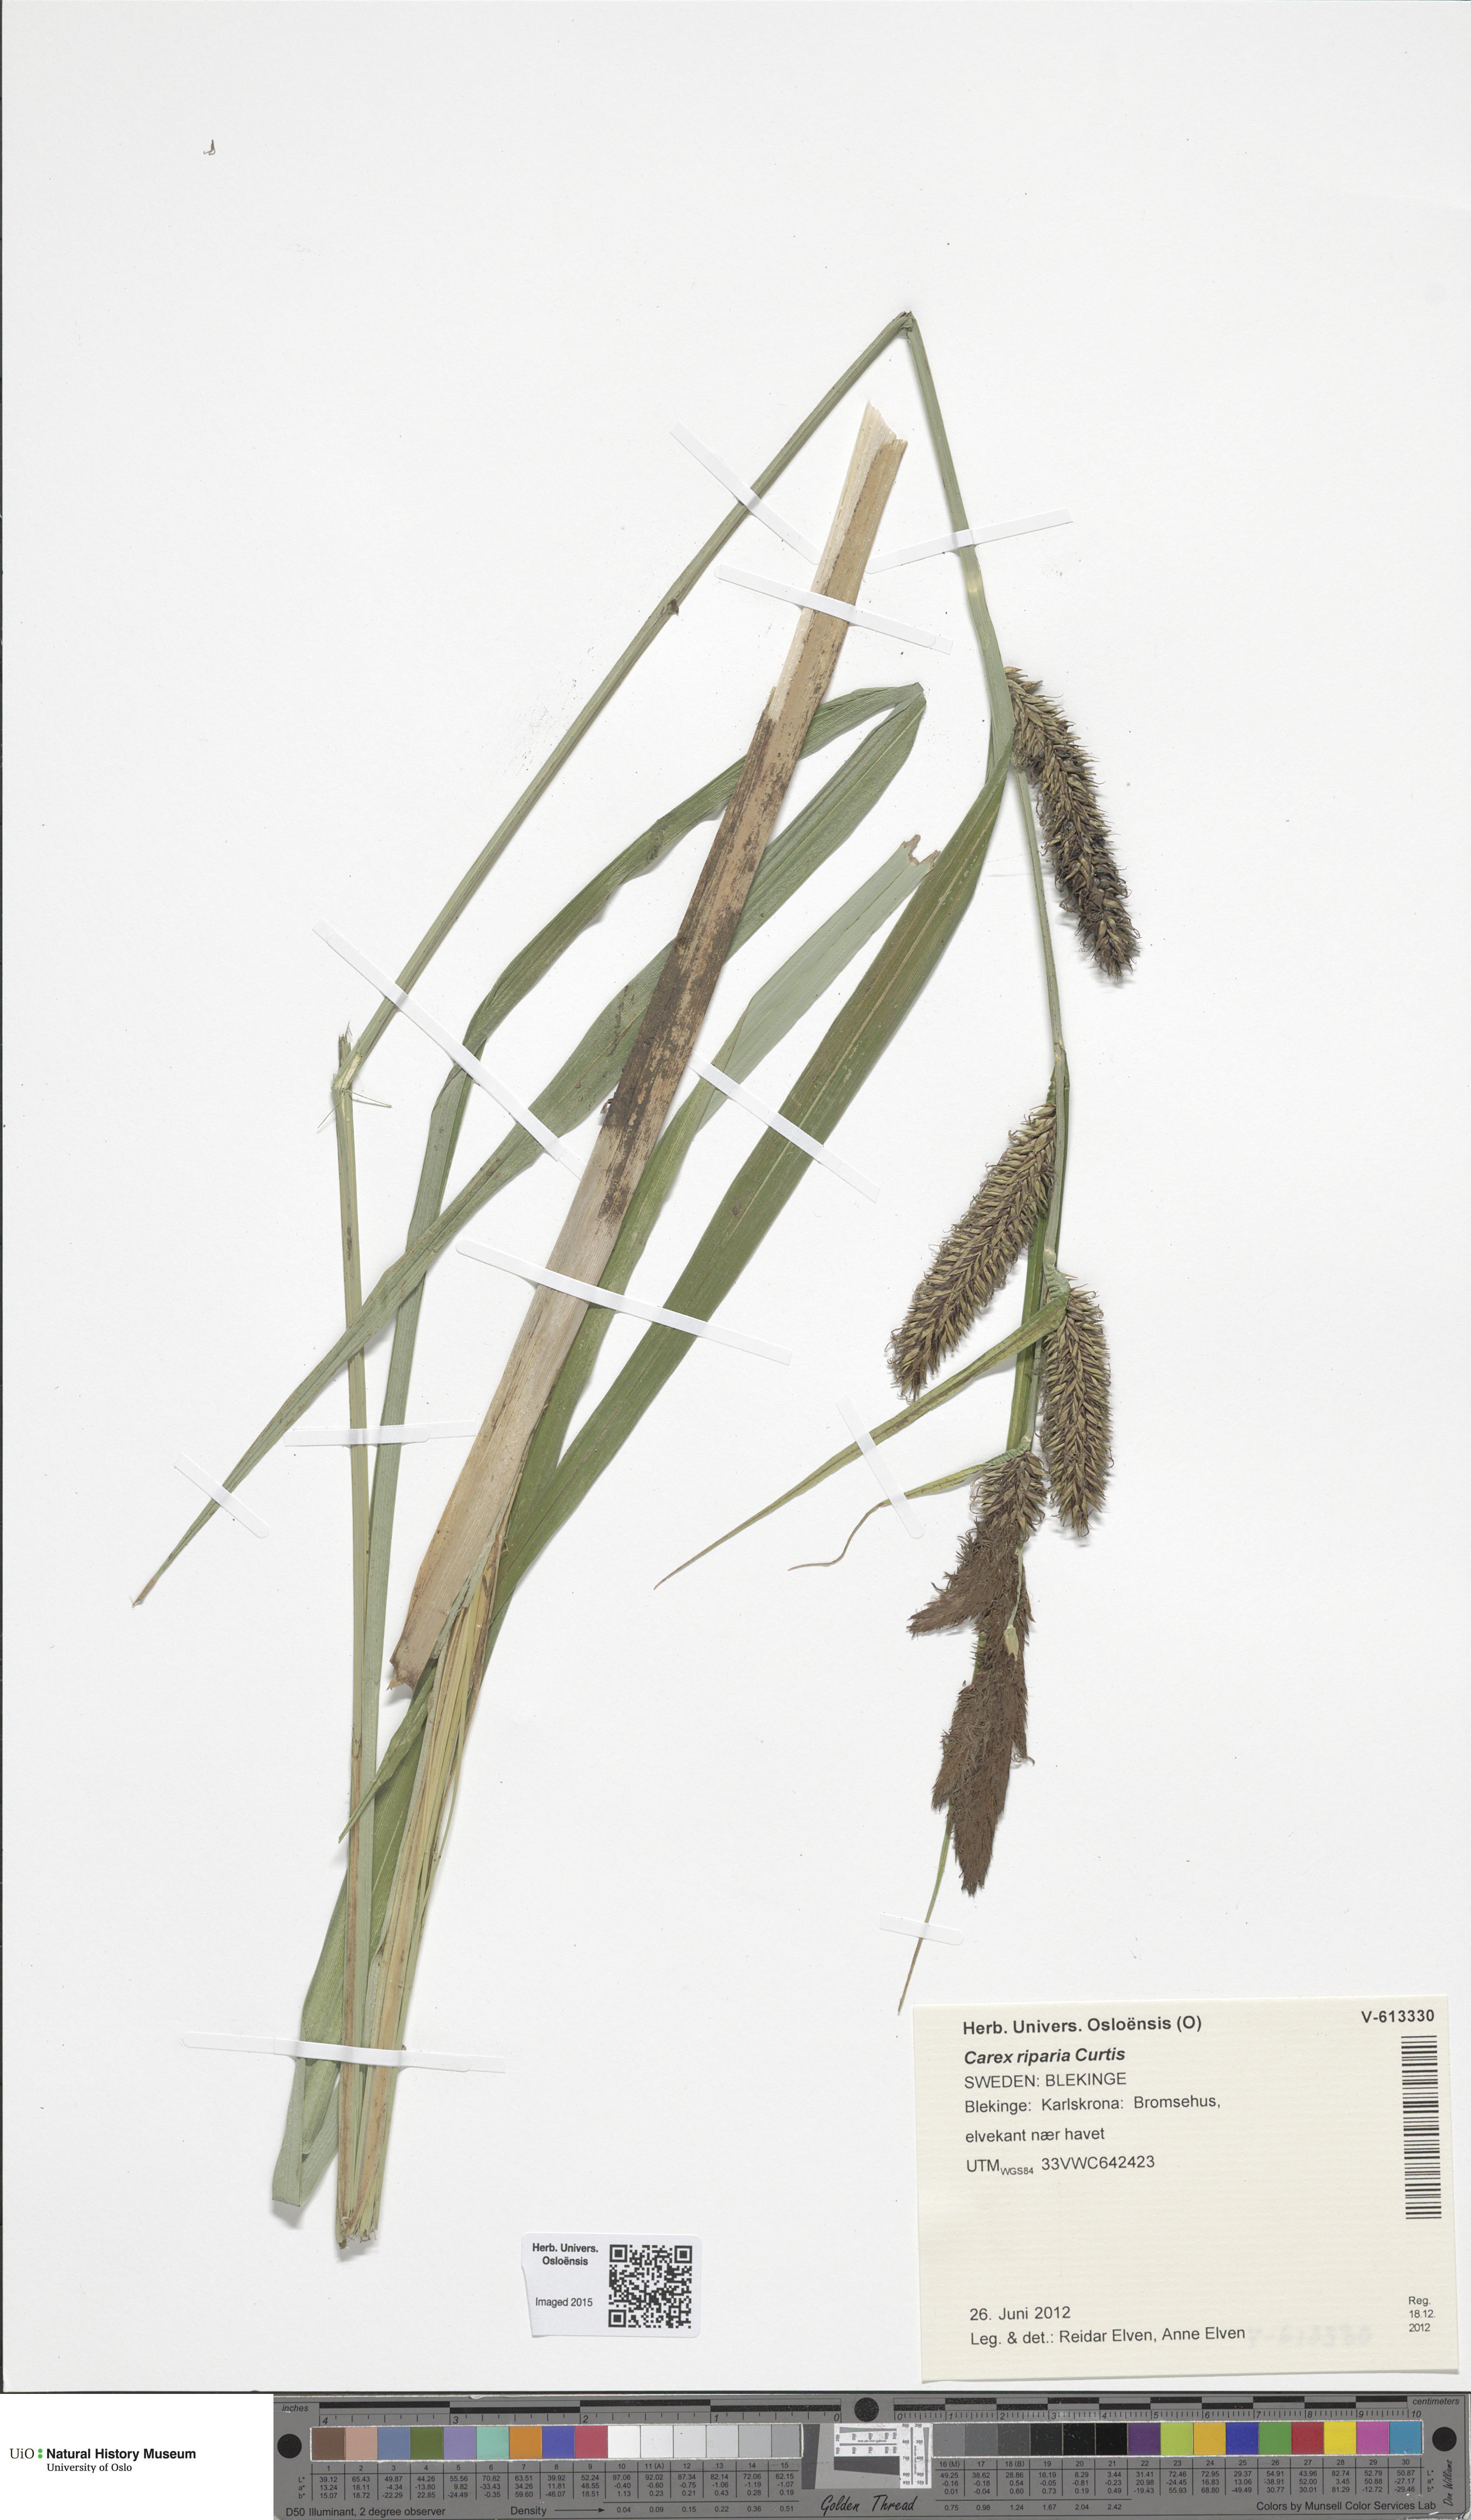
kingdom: Plantae
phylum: Tracheophyta
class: Liliopsida
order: Poales
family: Cyperaceae
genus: Carex
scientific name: Carex riparia
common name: Greater pond-sedge
